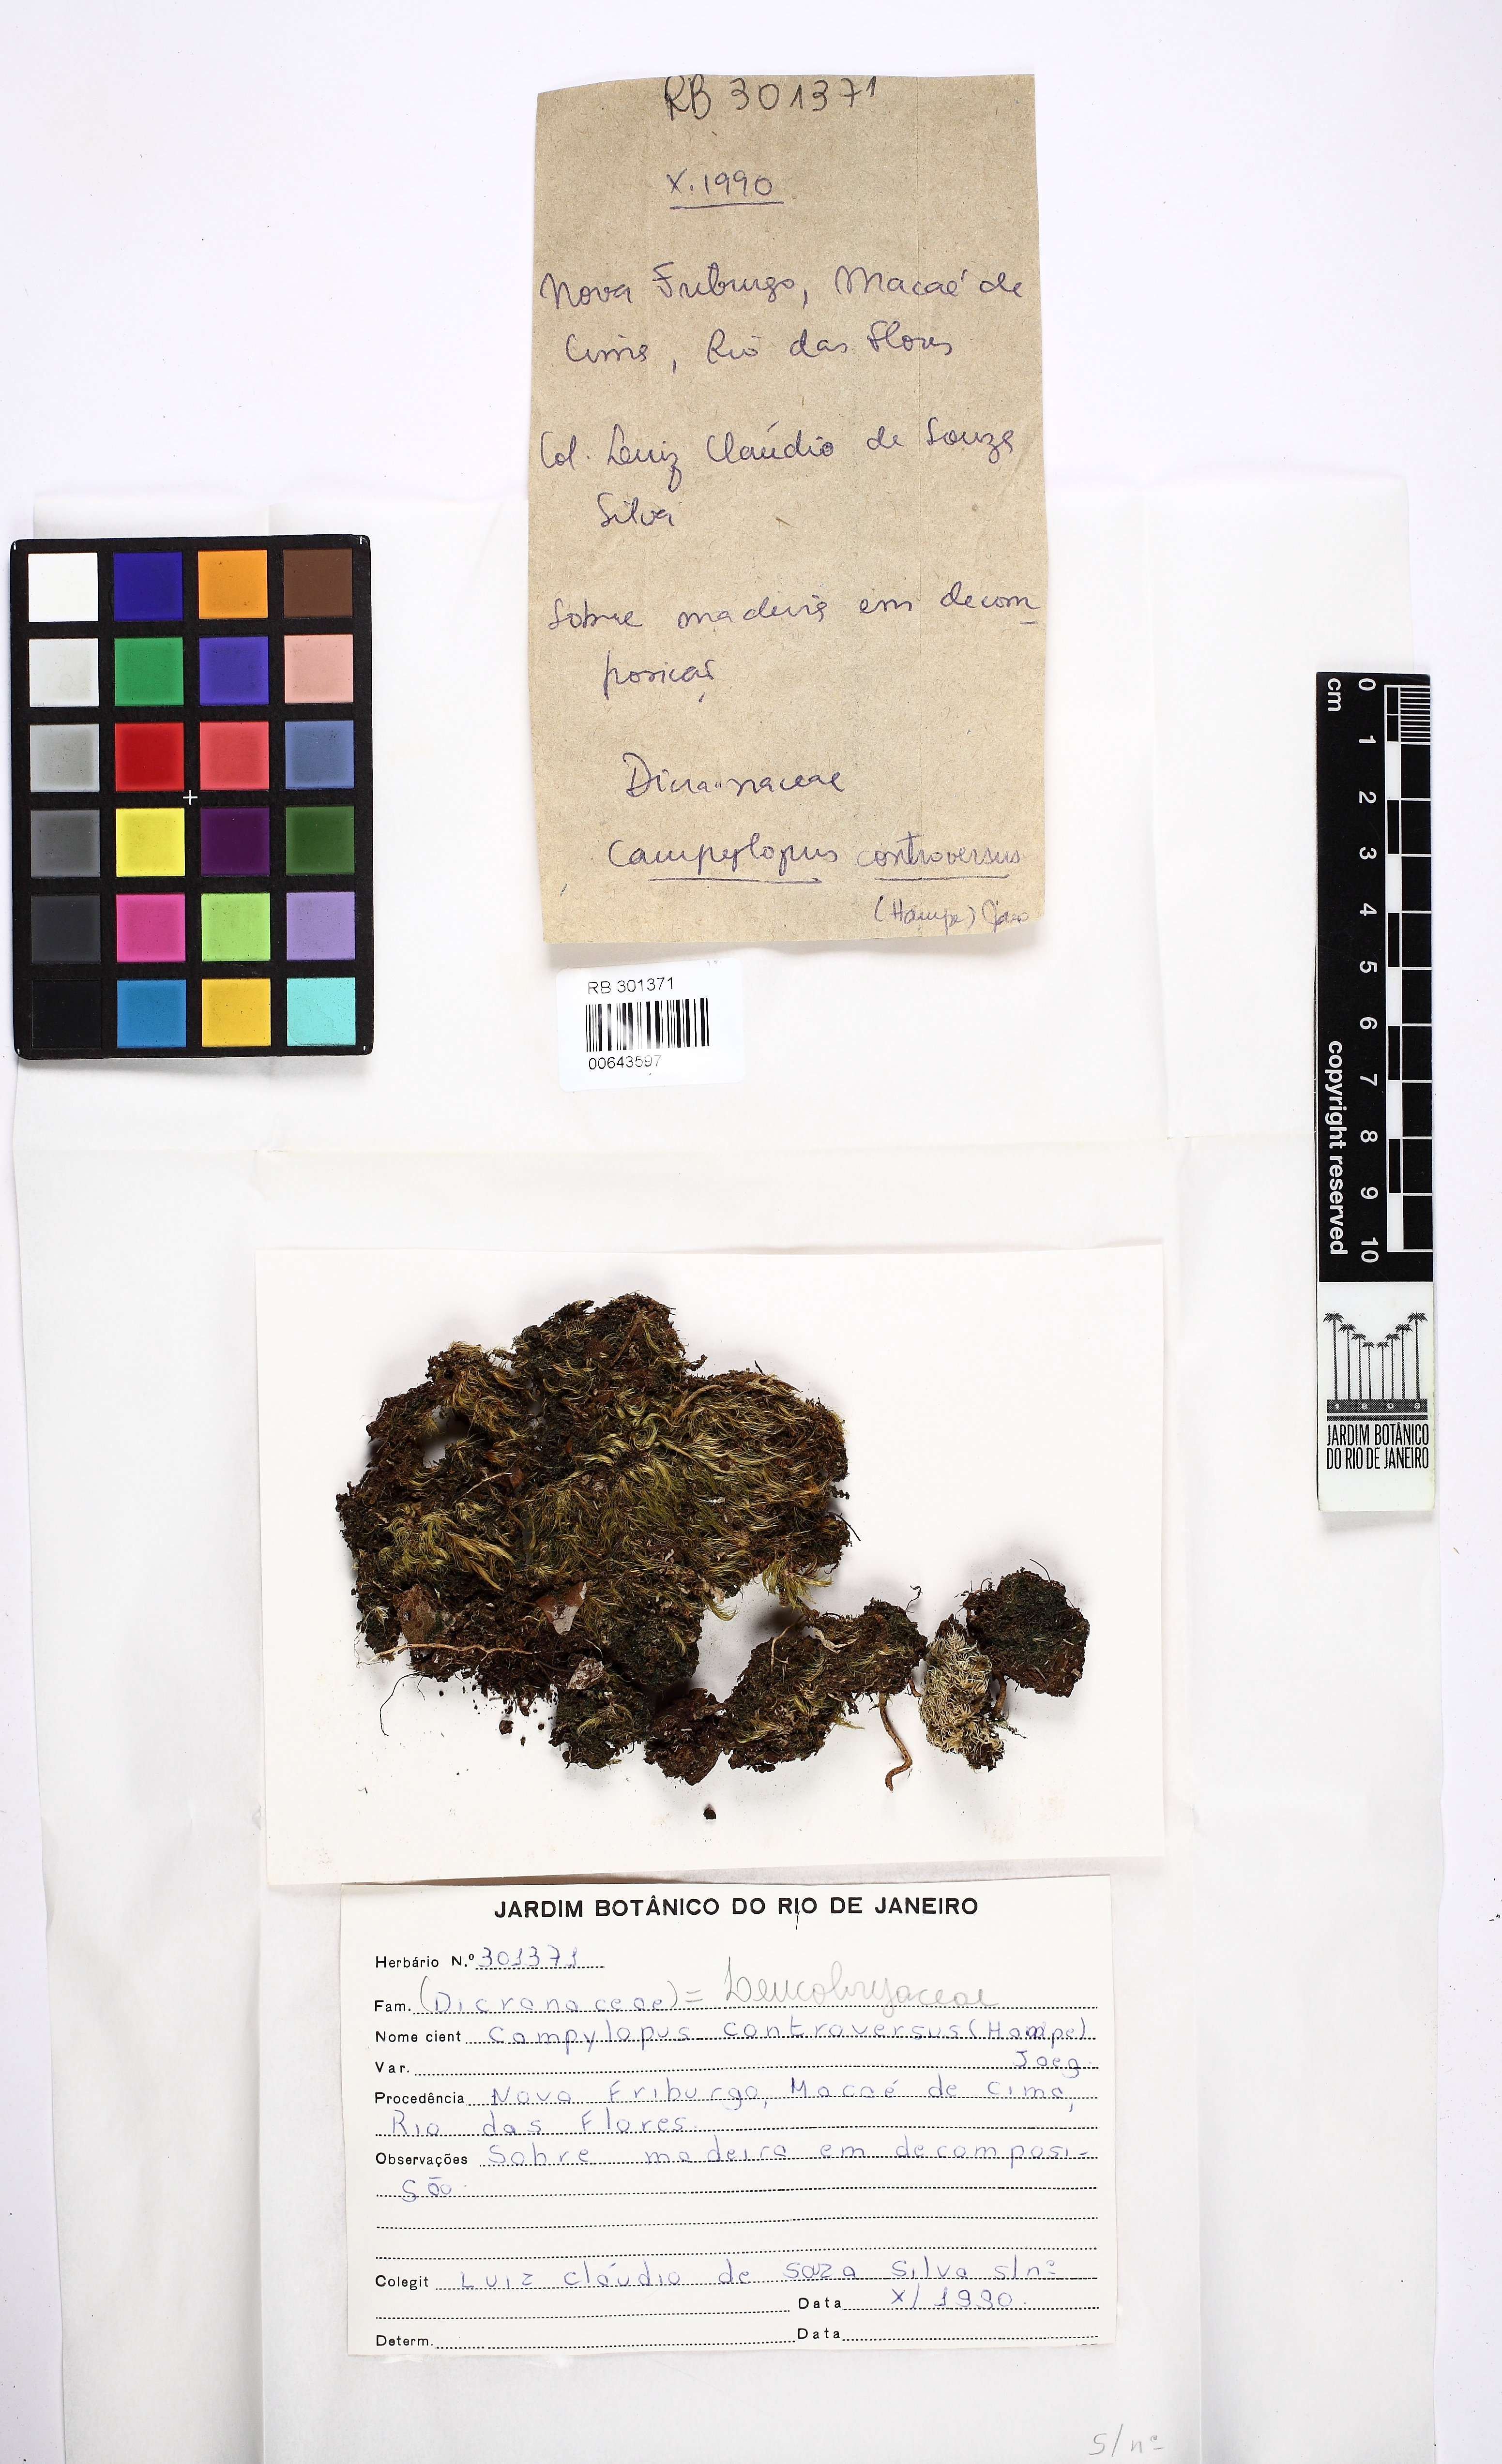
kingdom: Plantae
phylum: Bryophyta
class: Bryopsida
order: Dicranales
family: Leucobryaceae
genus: Campylopus
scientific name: Campylopus thwaitesii
